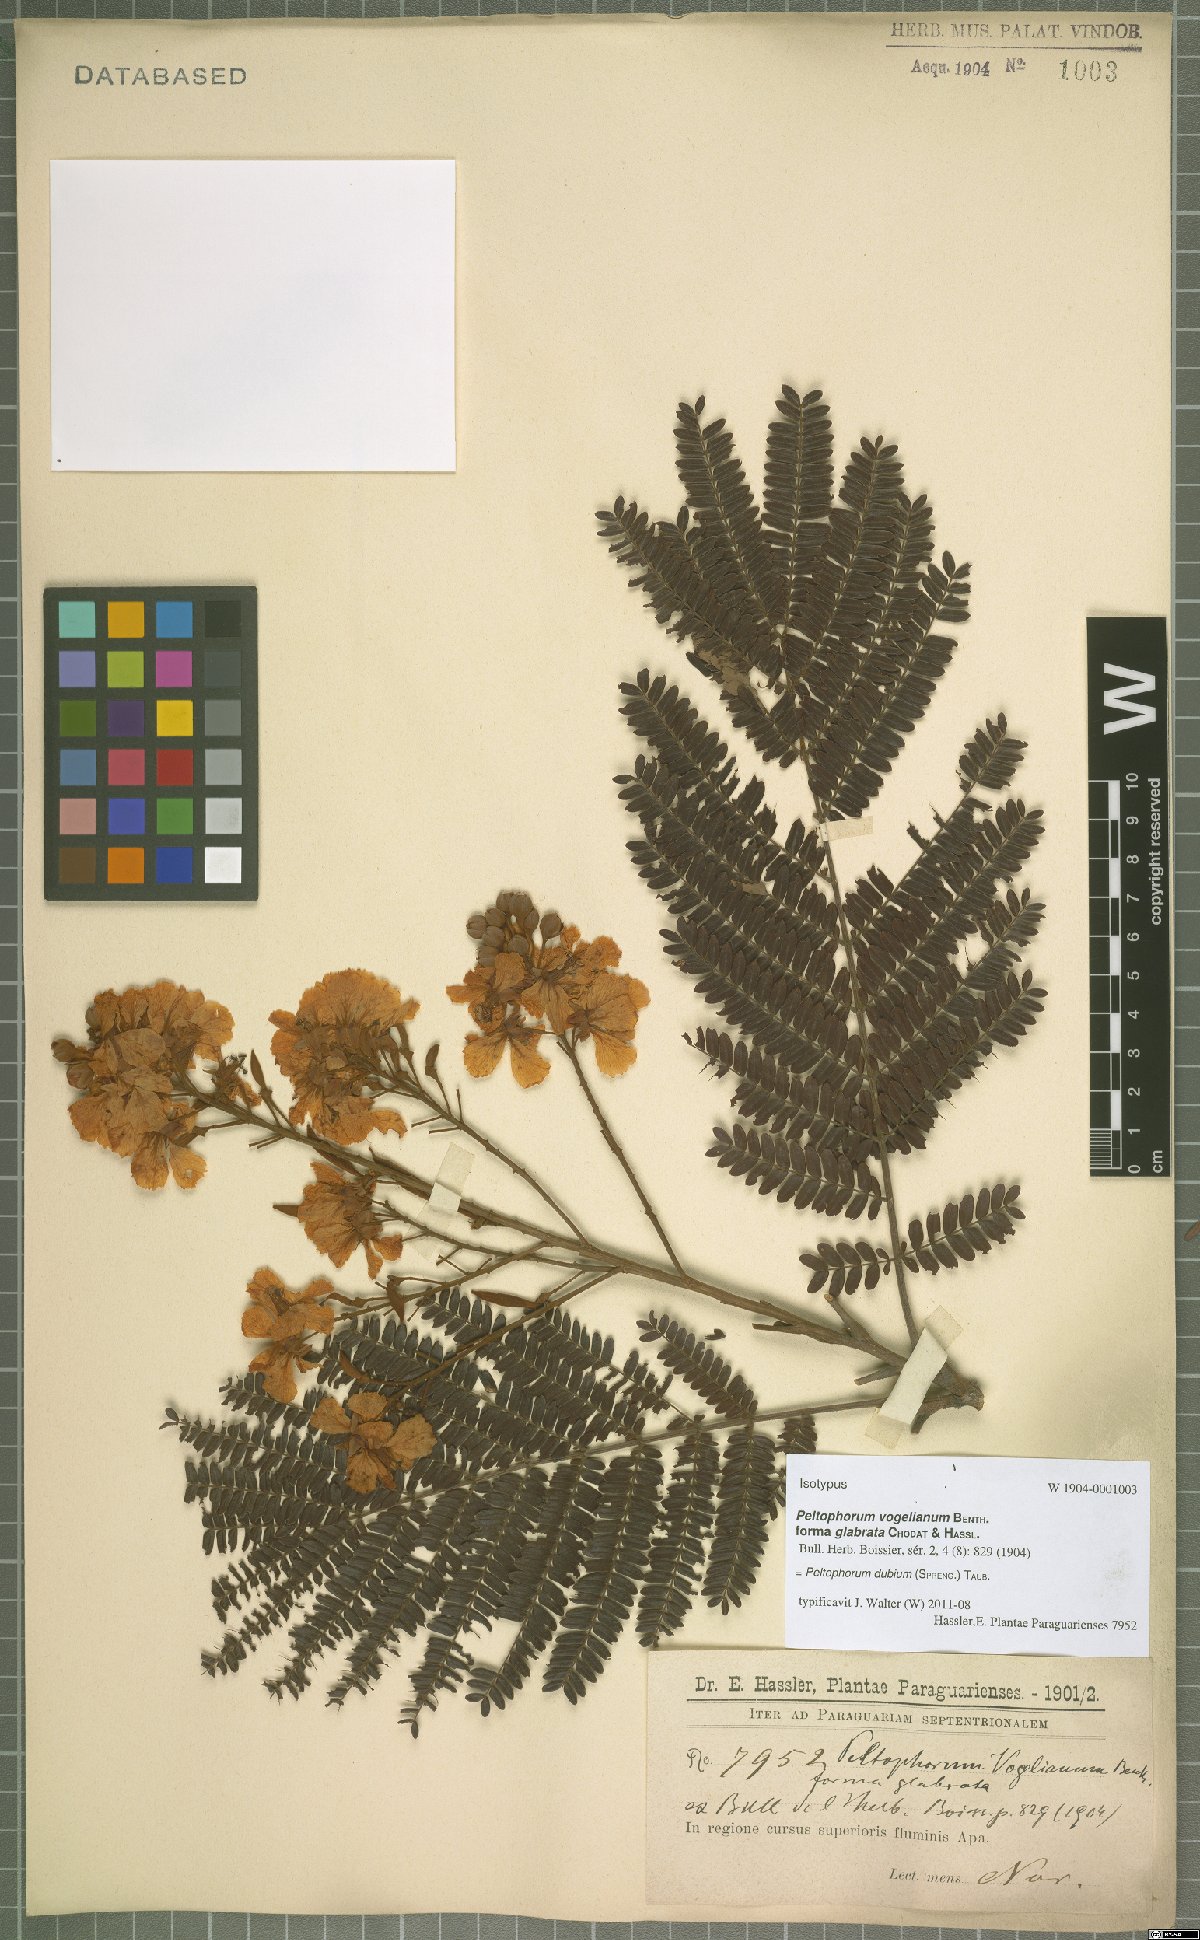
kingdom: Plantae
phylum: Tracheophyta
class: Magnoliopsida
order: Fabales
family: Fabaceae
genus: Peltophorum
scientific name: Peltophorum dubium
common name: Horsebush
